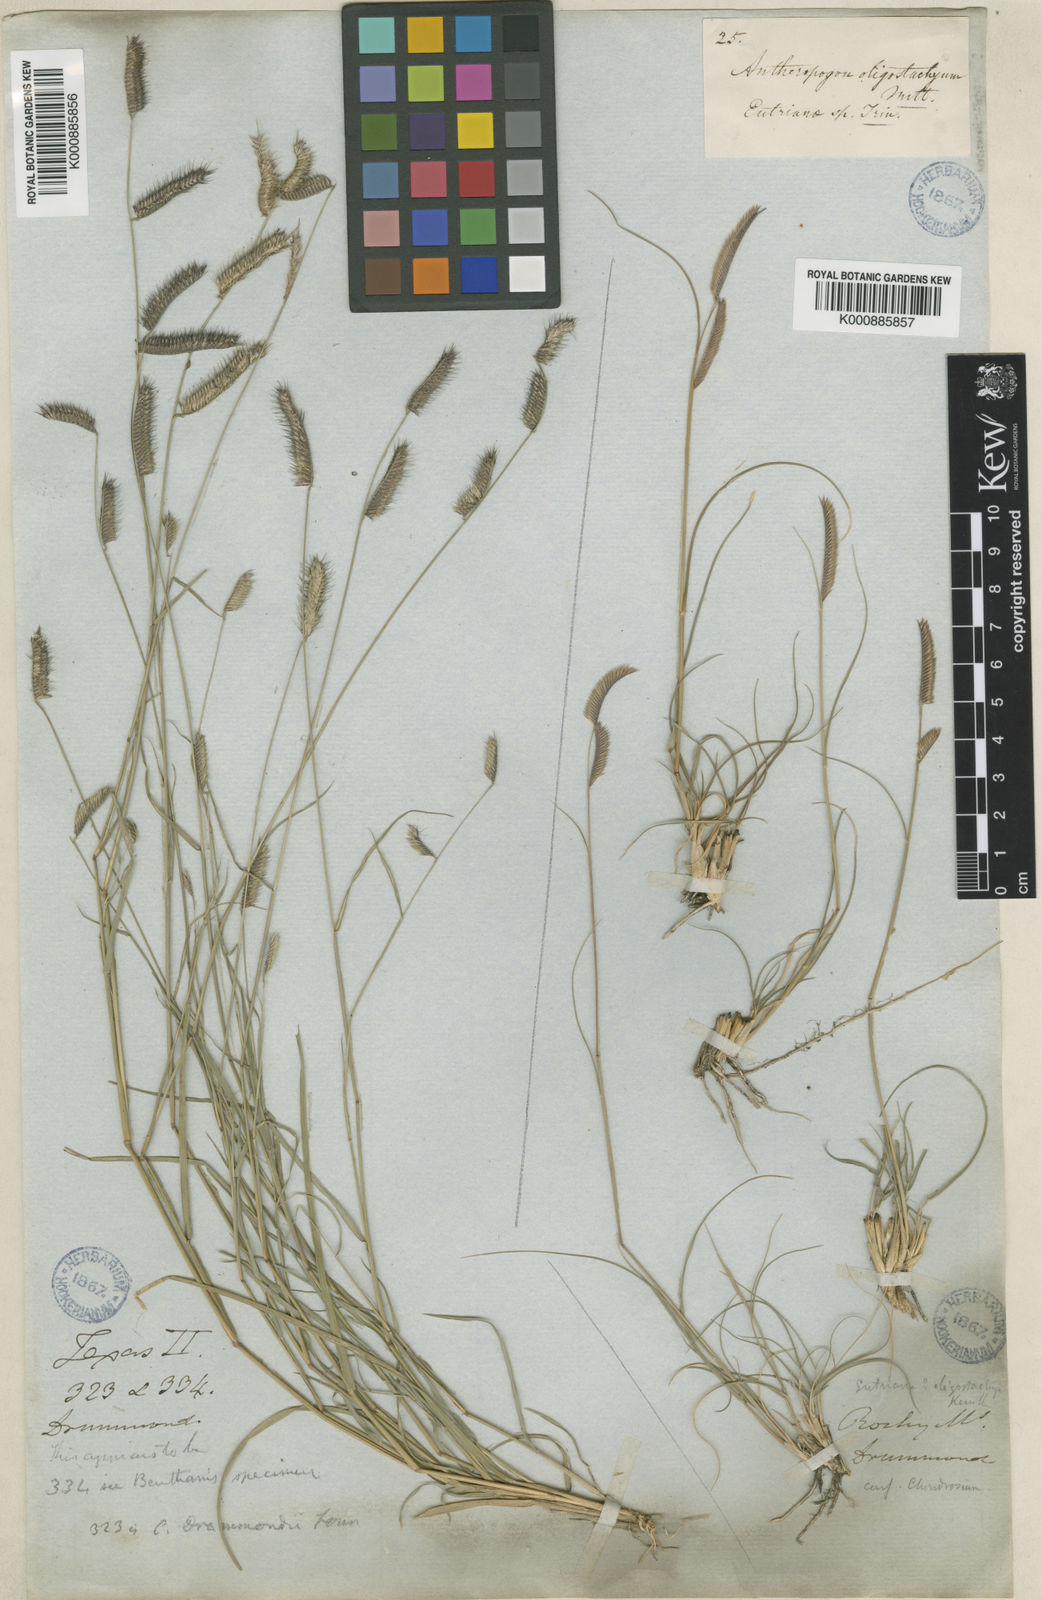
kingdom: Plantae
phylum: Tracheophyta
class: Liliopsida
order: Poales
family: Poaceae
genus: Bouteloua
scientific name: Bouteloua
